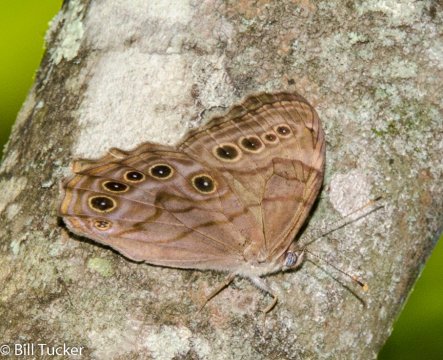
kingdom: Animalia
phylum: Arthropoda
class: Insecta
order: Lepidoptera
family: Nymphalidae
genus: Lethe
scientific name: Lethe anthedon
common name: Northern Pearly-Eye
